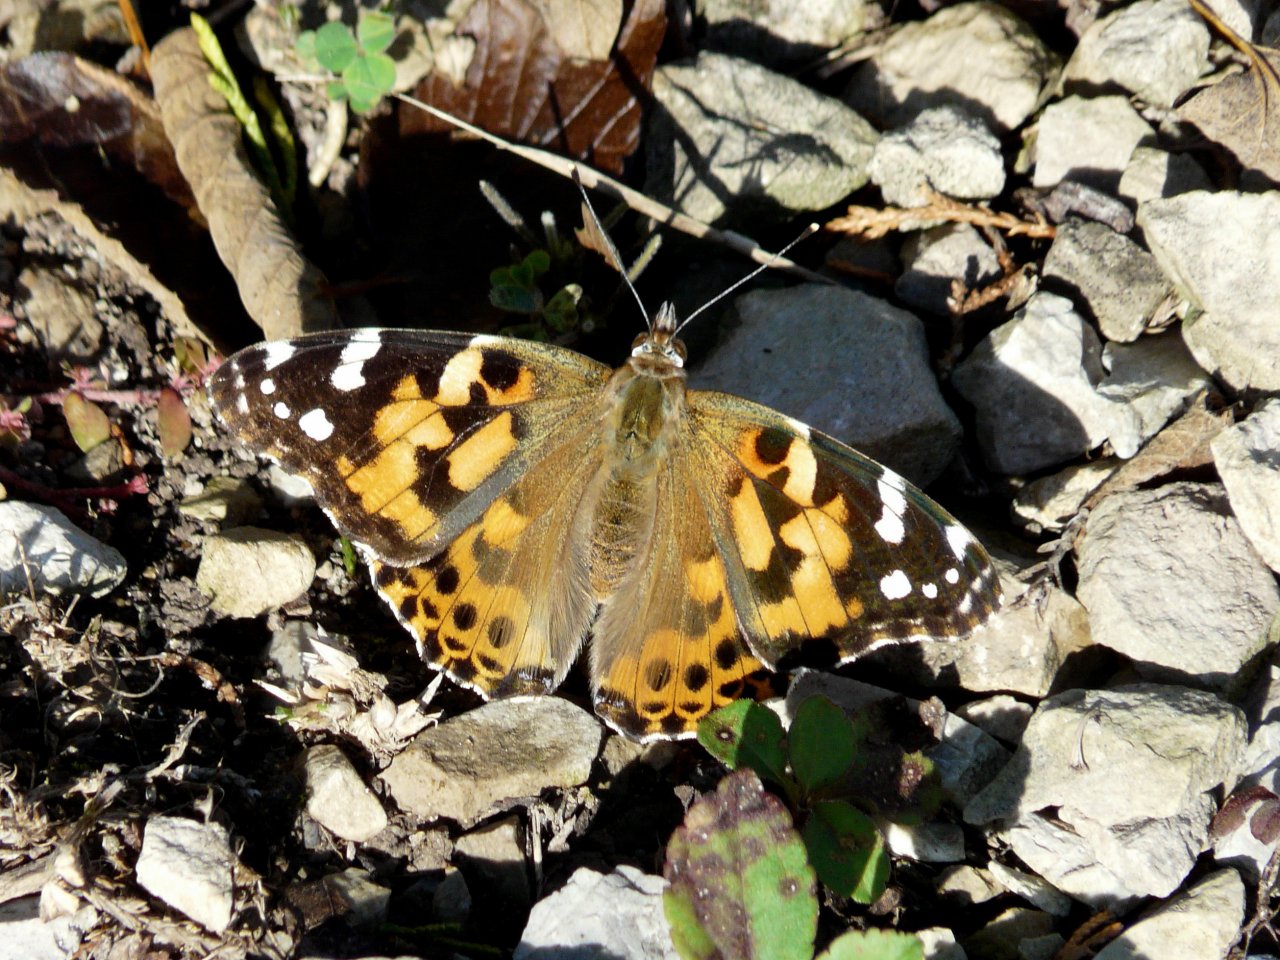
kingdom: Animalia
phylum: Arthropoda
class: Insecta
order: Lepidoptera
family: Nymphalidae
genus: Vanessa
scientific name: Vanessa cardui
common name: Painted Lady
